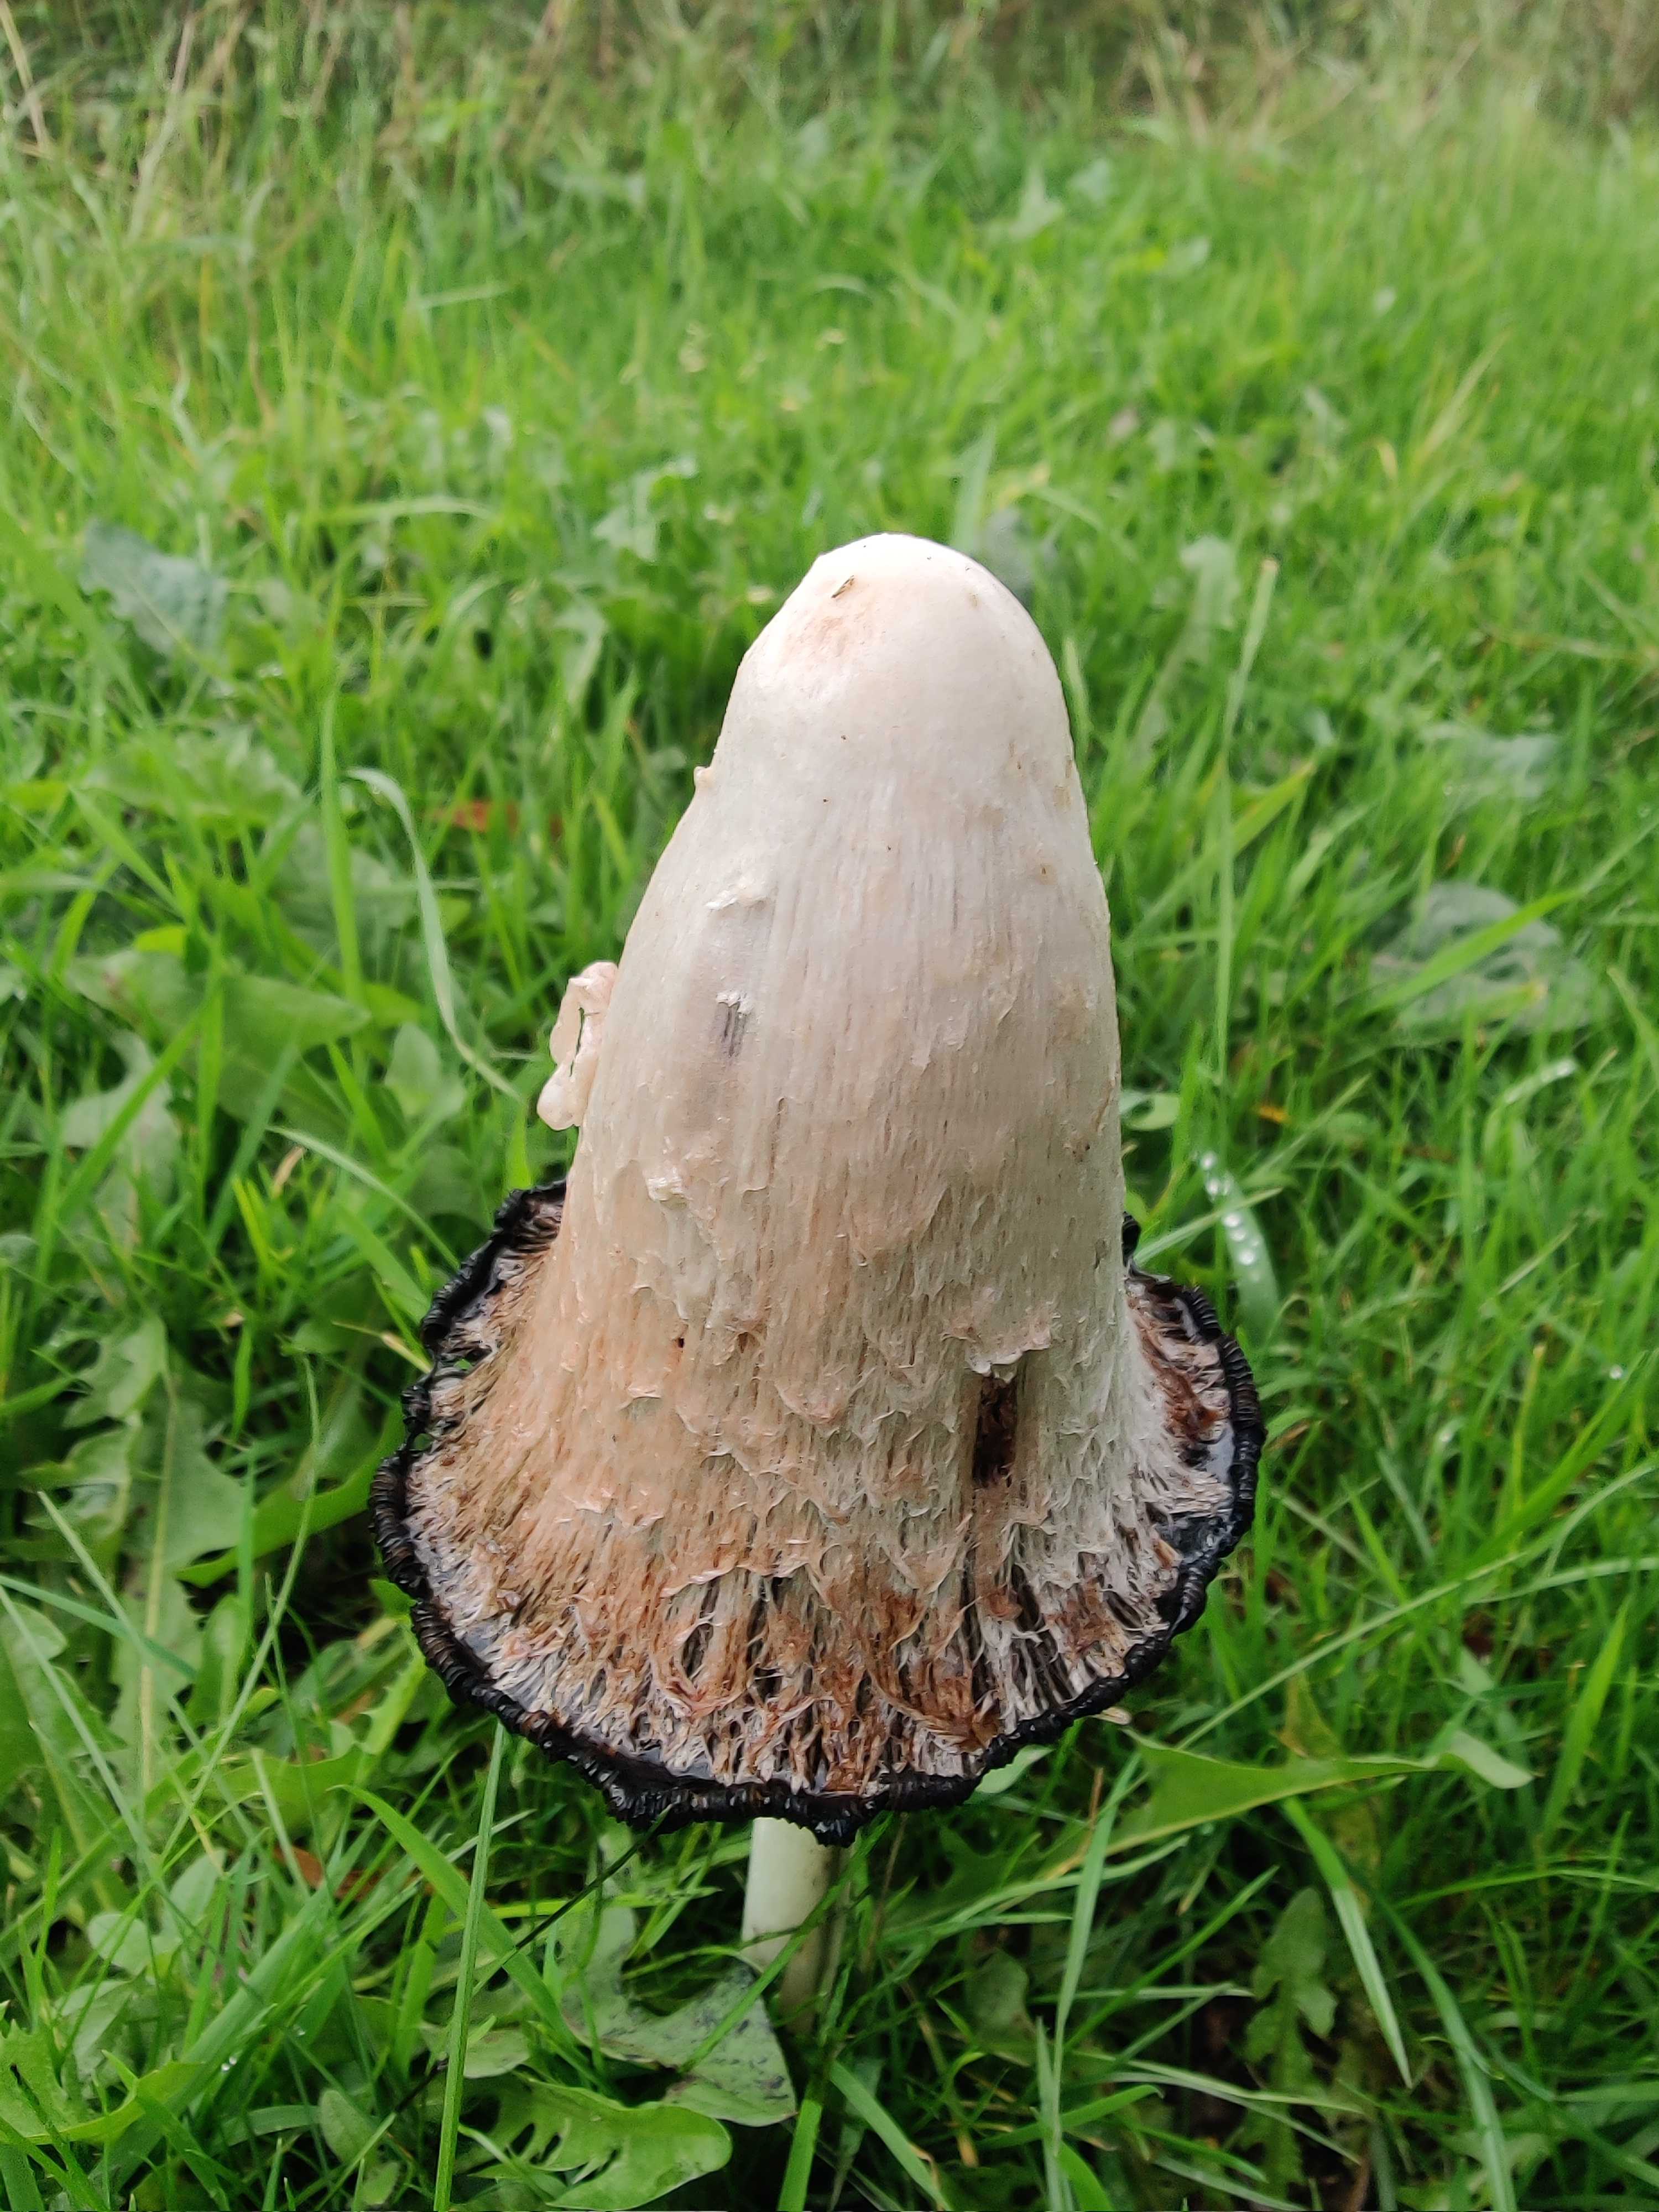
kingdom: Fungi
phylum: Basidiomycota
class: Agaricomycetes
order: Agaricales
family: Agaricaceae
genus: Coprinus
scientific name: Coprinus comatus
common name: stor parykhat
